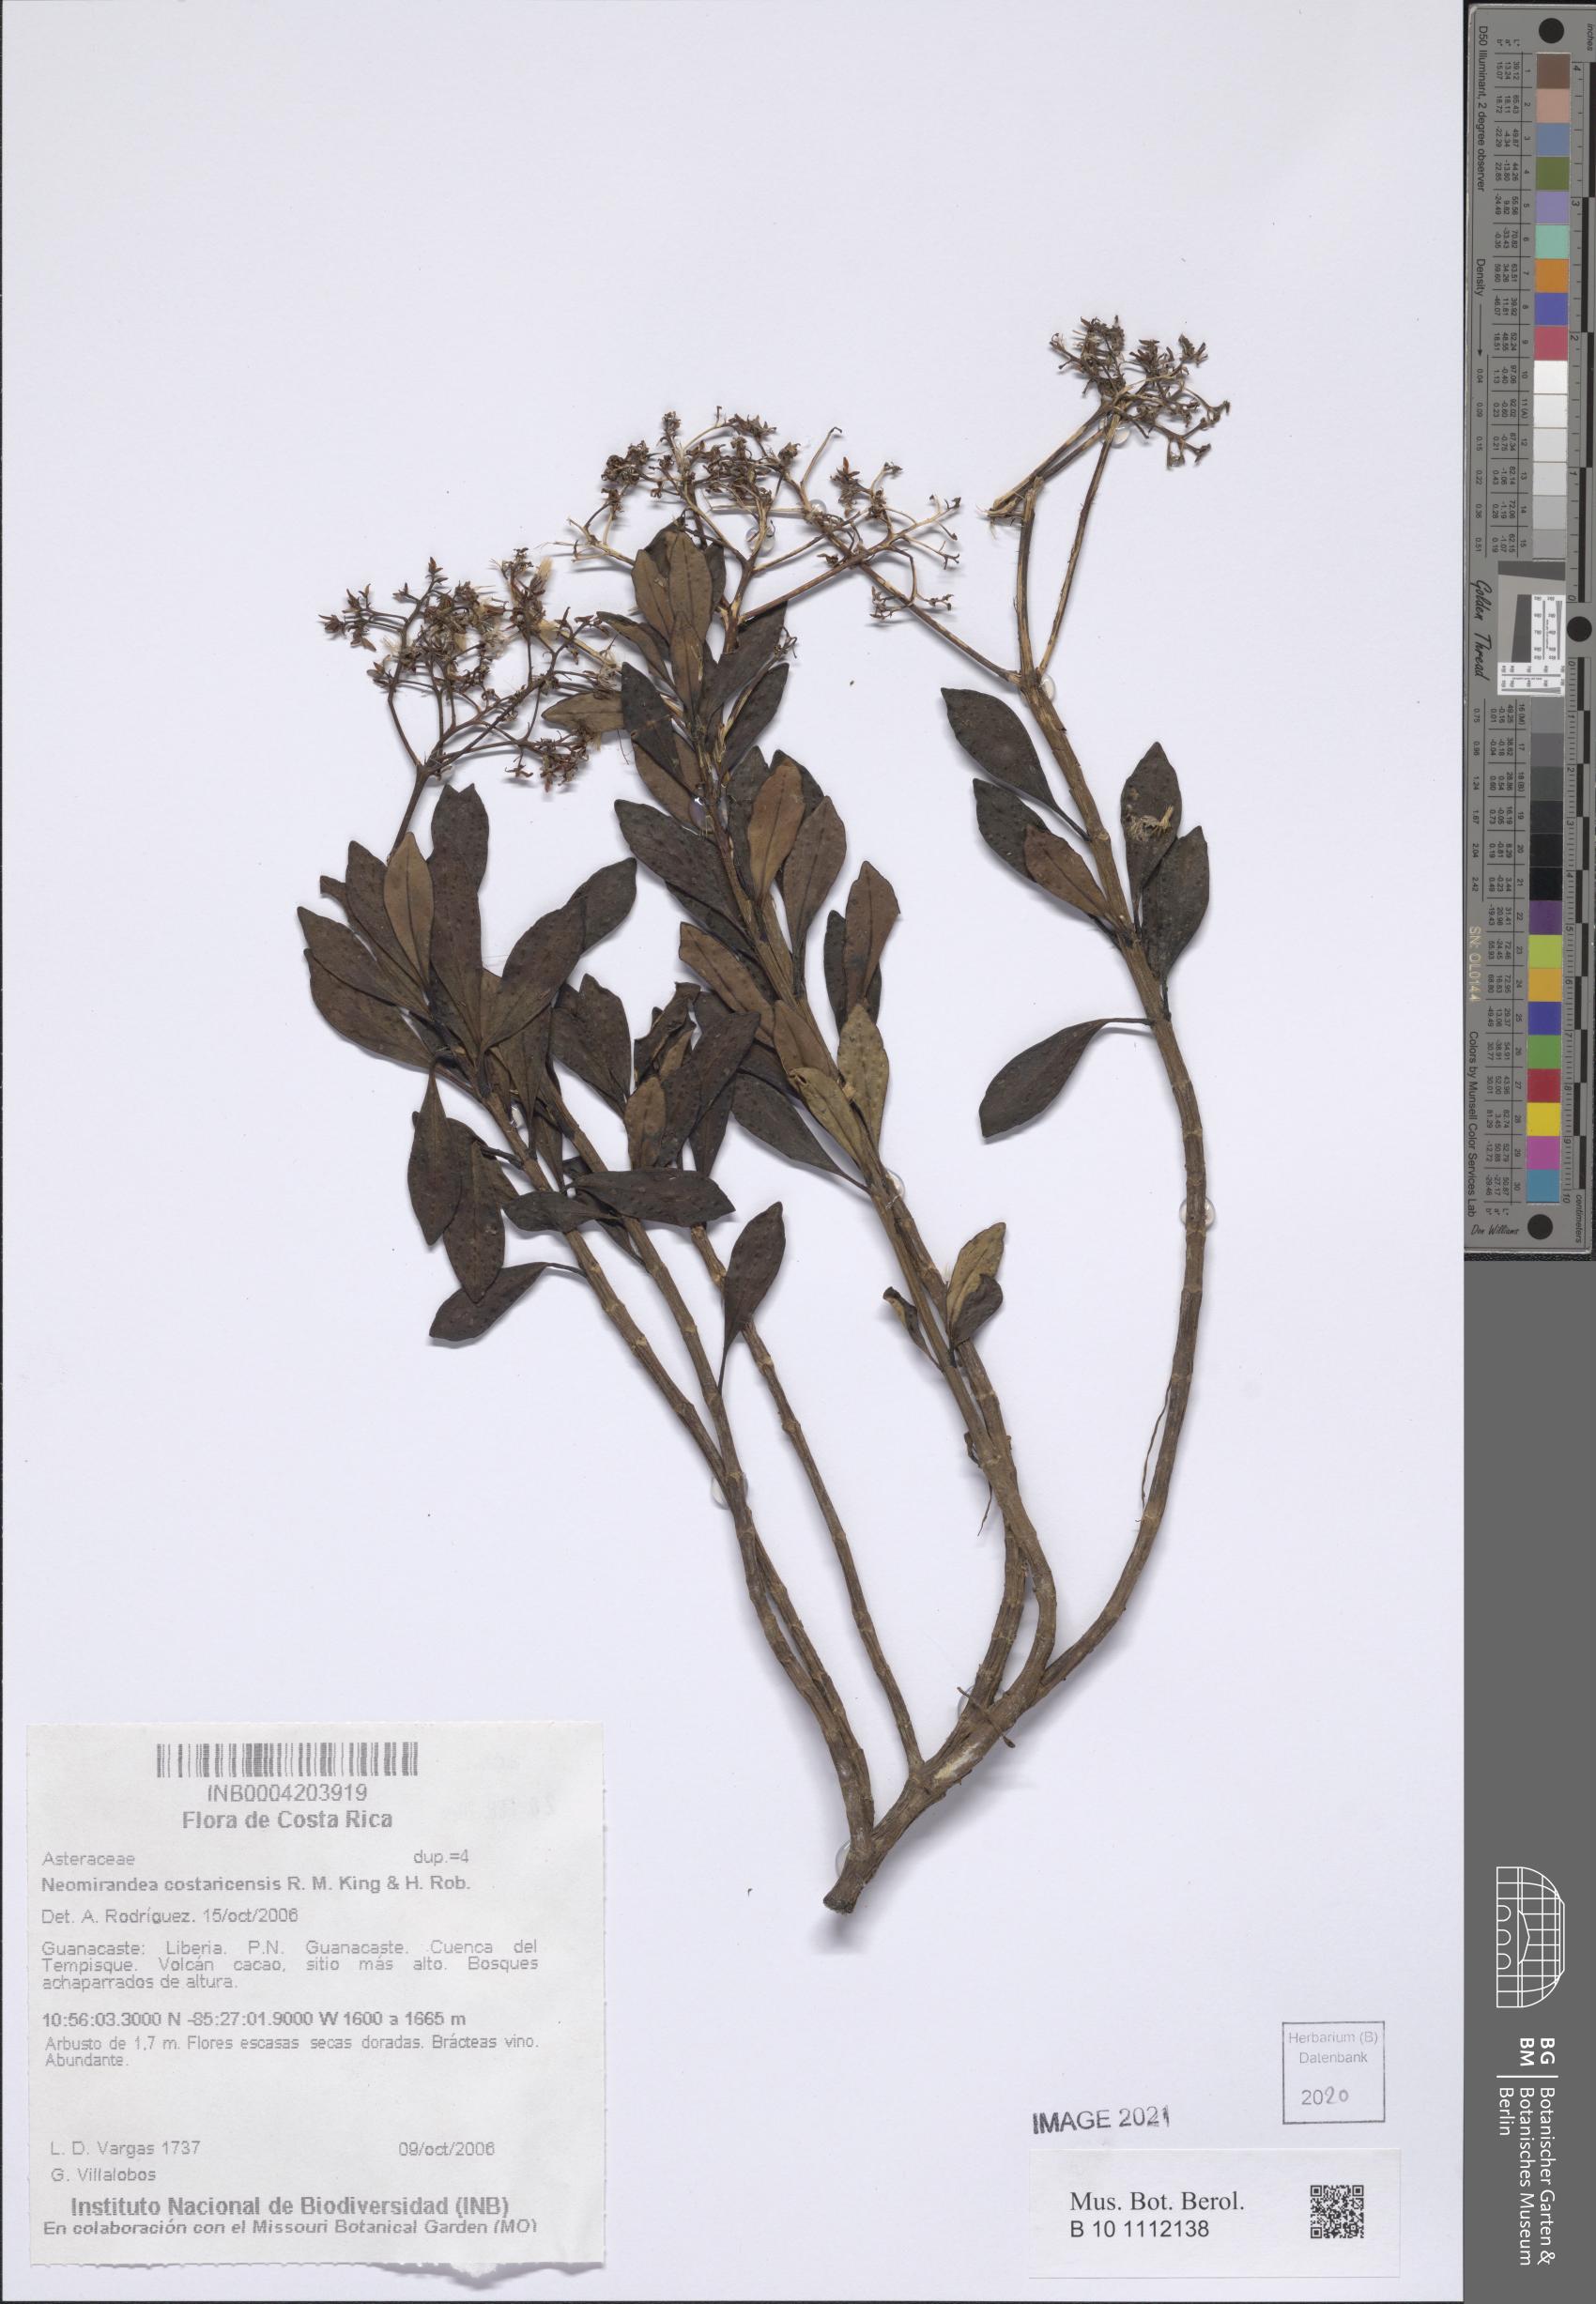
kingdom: Plantae
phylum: Tracheophyta
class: Magnoliopsida
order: Asterales
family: Asteraceae
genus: Neomirandea
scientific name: Neomirandea costaricensis
